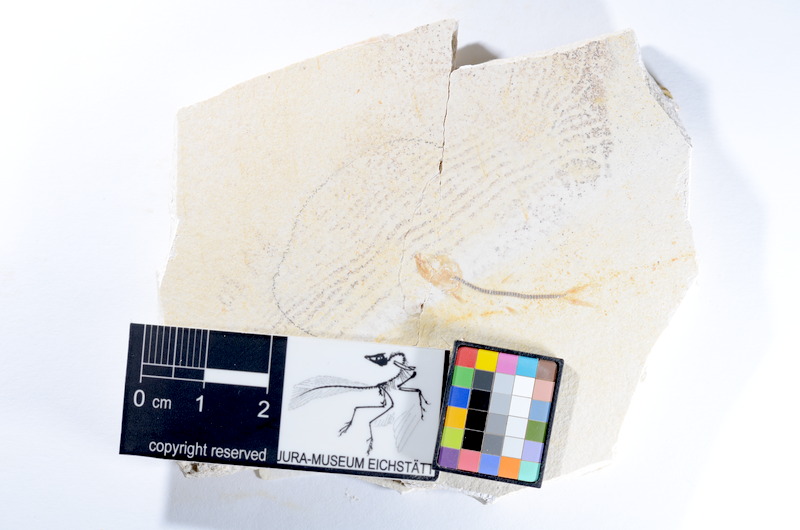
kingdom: Animalia
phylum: Chordata
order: Salmoniformes
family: Orthogonikleithridae
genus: Orthogonikleithrus
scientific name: Orthogonikleithrus hoelli
